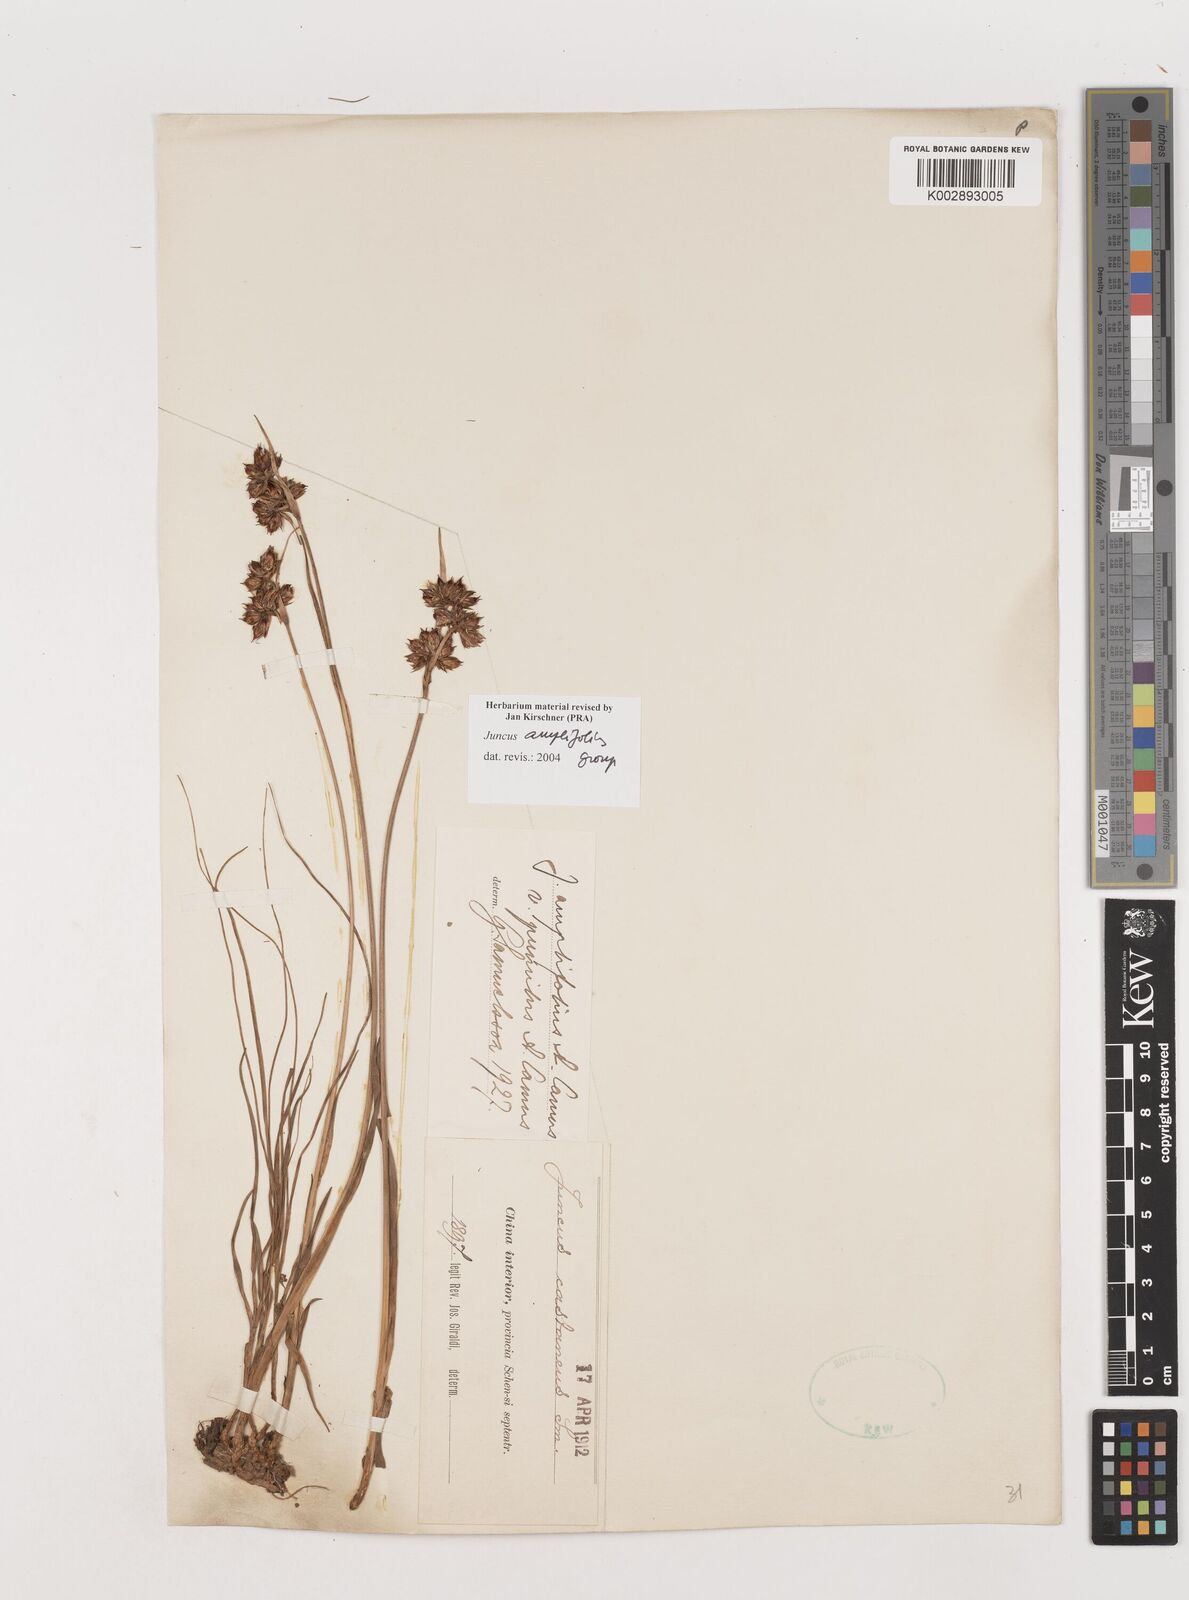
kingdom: Plantae
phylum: Tracheophyta
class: Liliopsida
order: Poales
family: Juncaceae
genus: Juncus
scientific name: Juncus amplifolius
